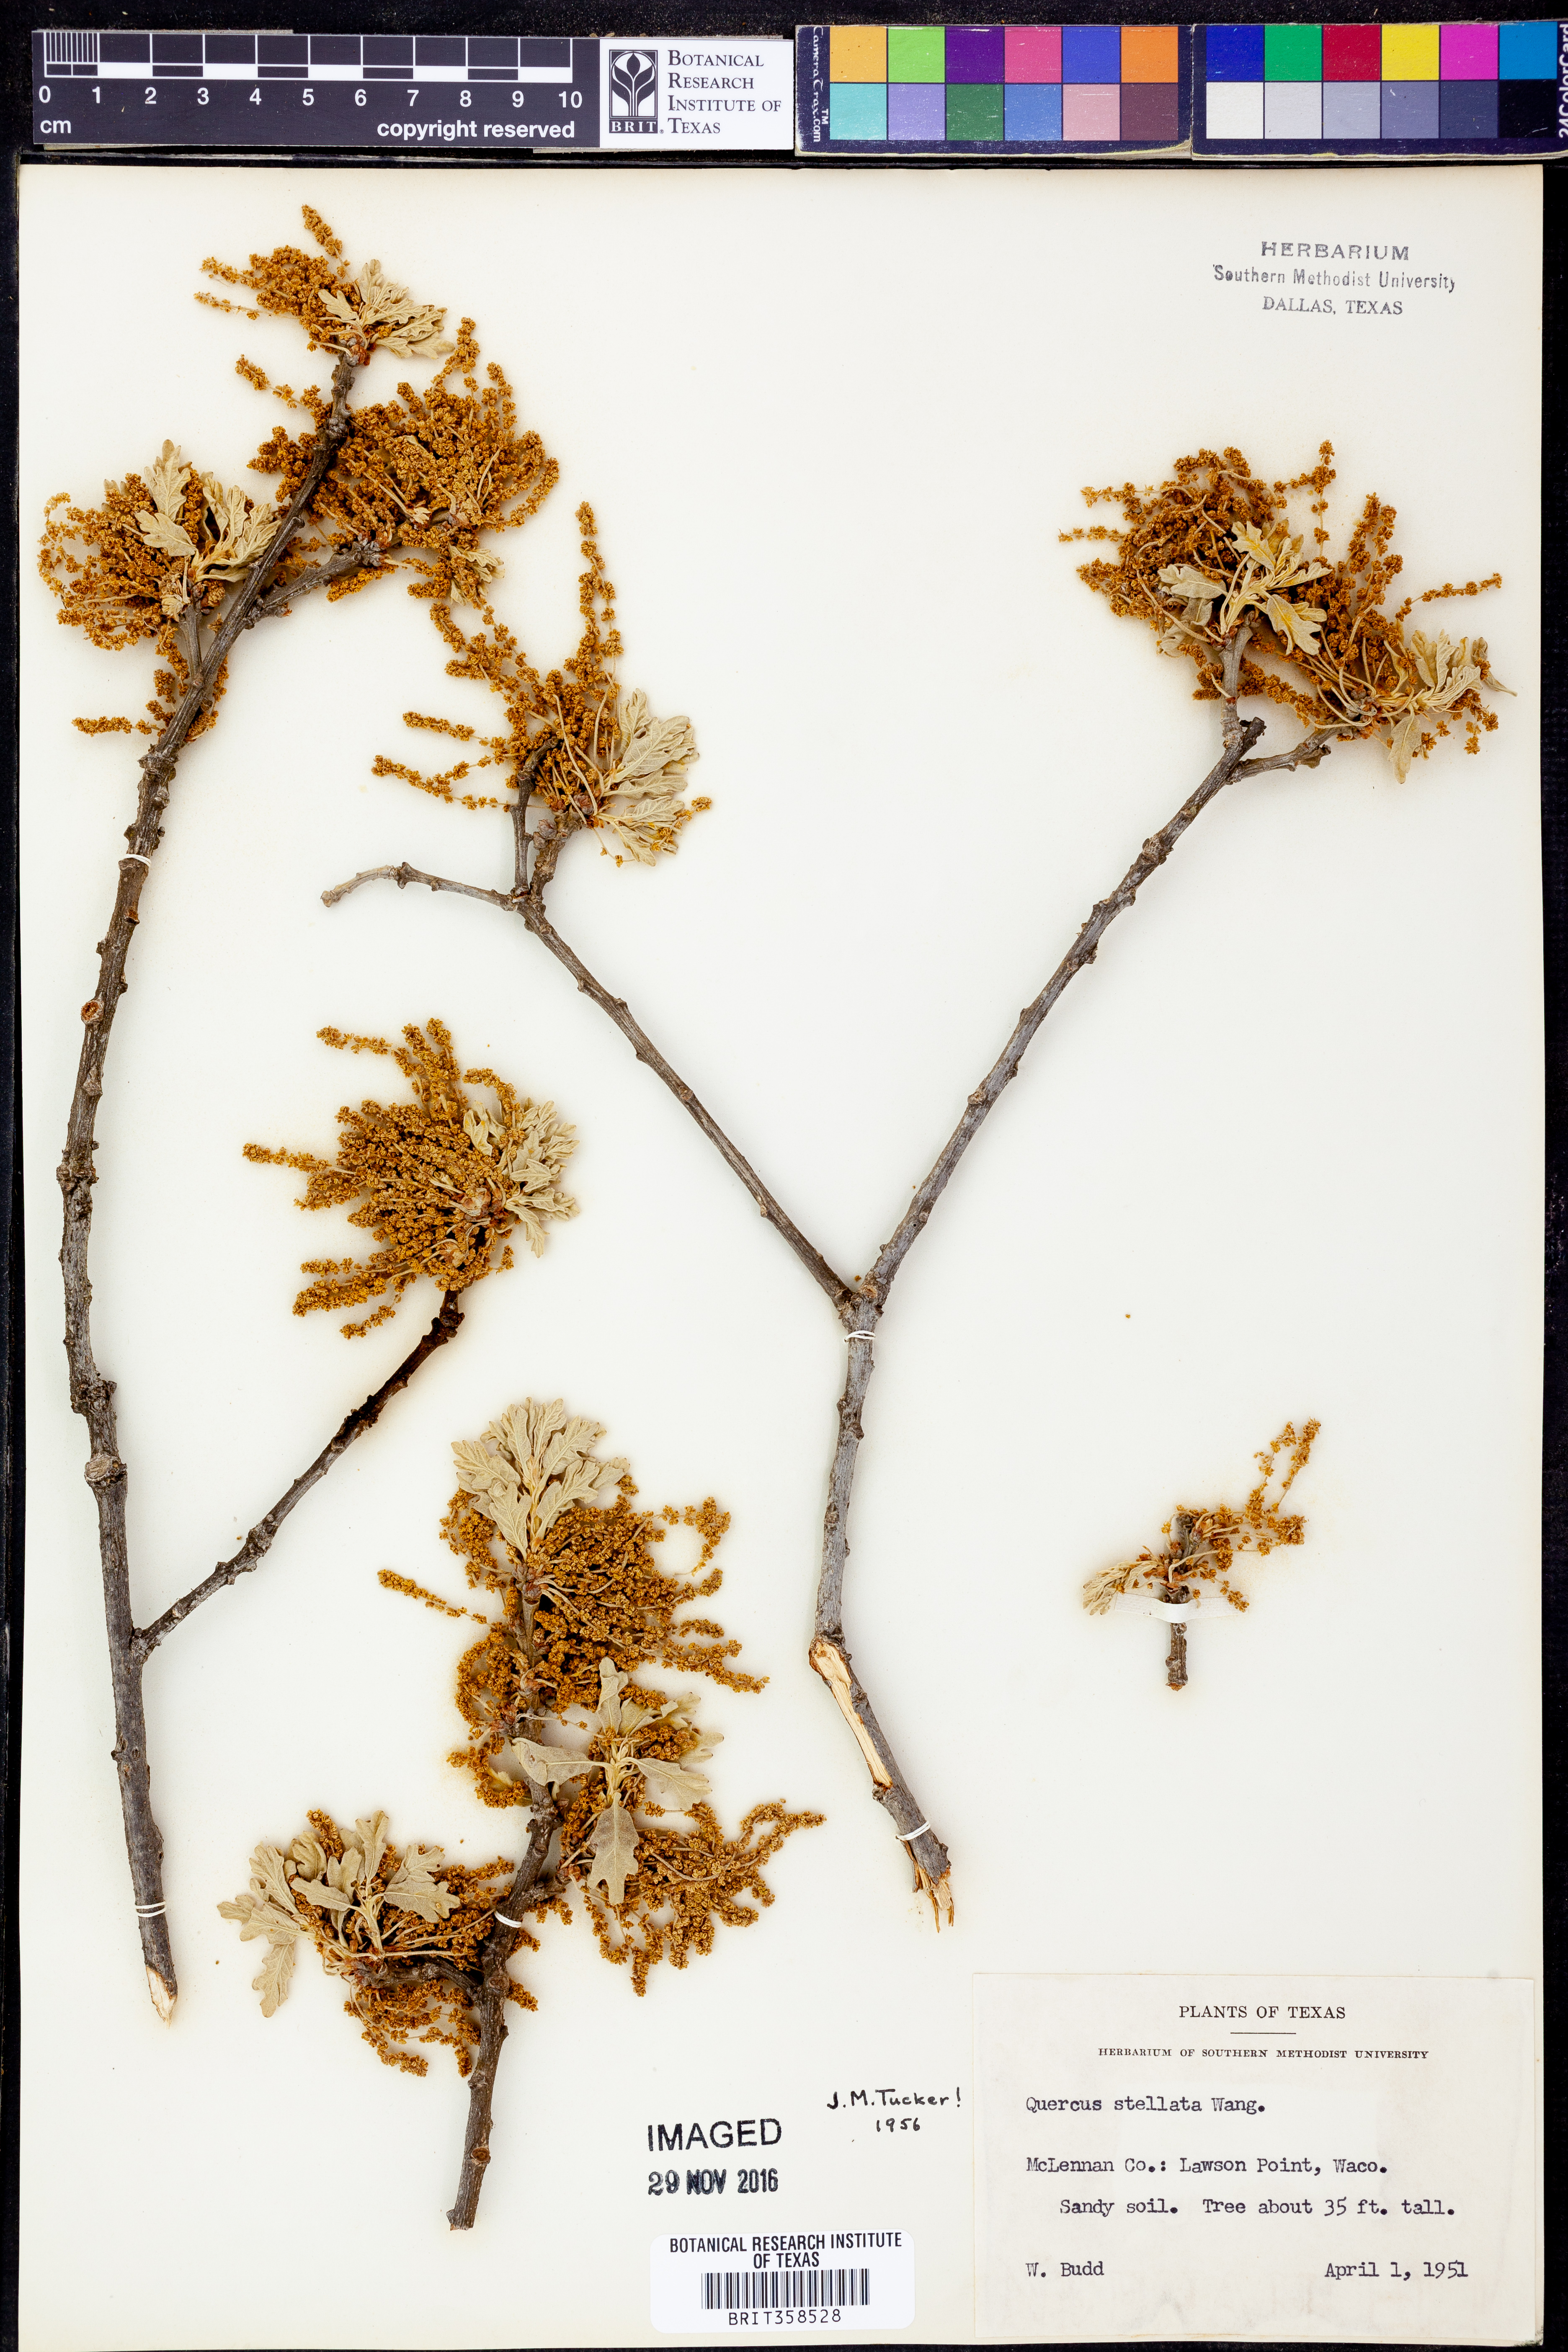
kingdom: Plantae
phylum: Tracheophyta
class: Magnoliopsida
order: Fagales
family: Fagaceae
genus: Quercus
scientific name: Quercus stellata
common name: Post oak
